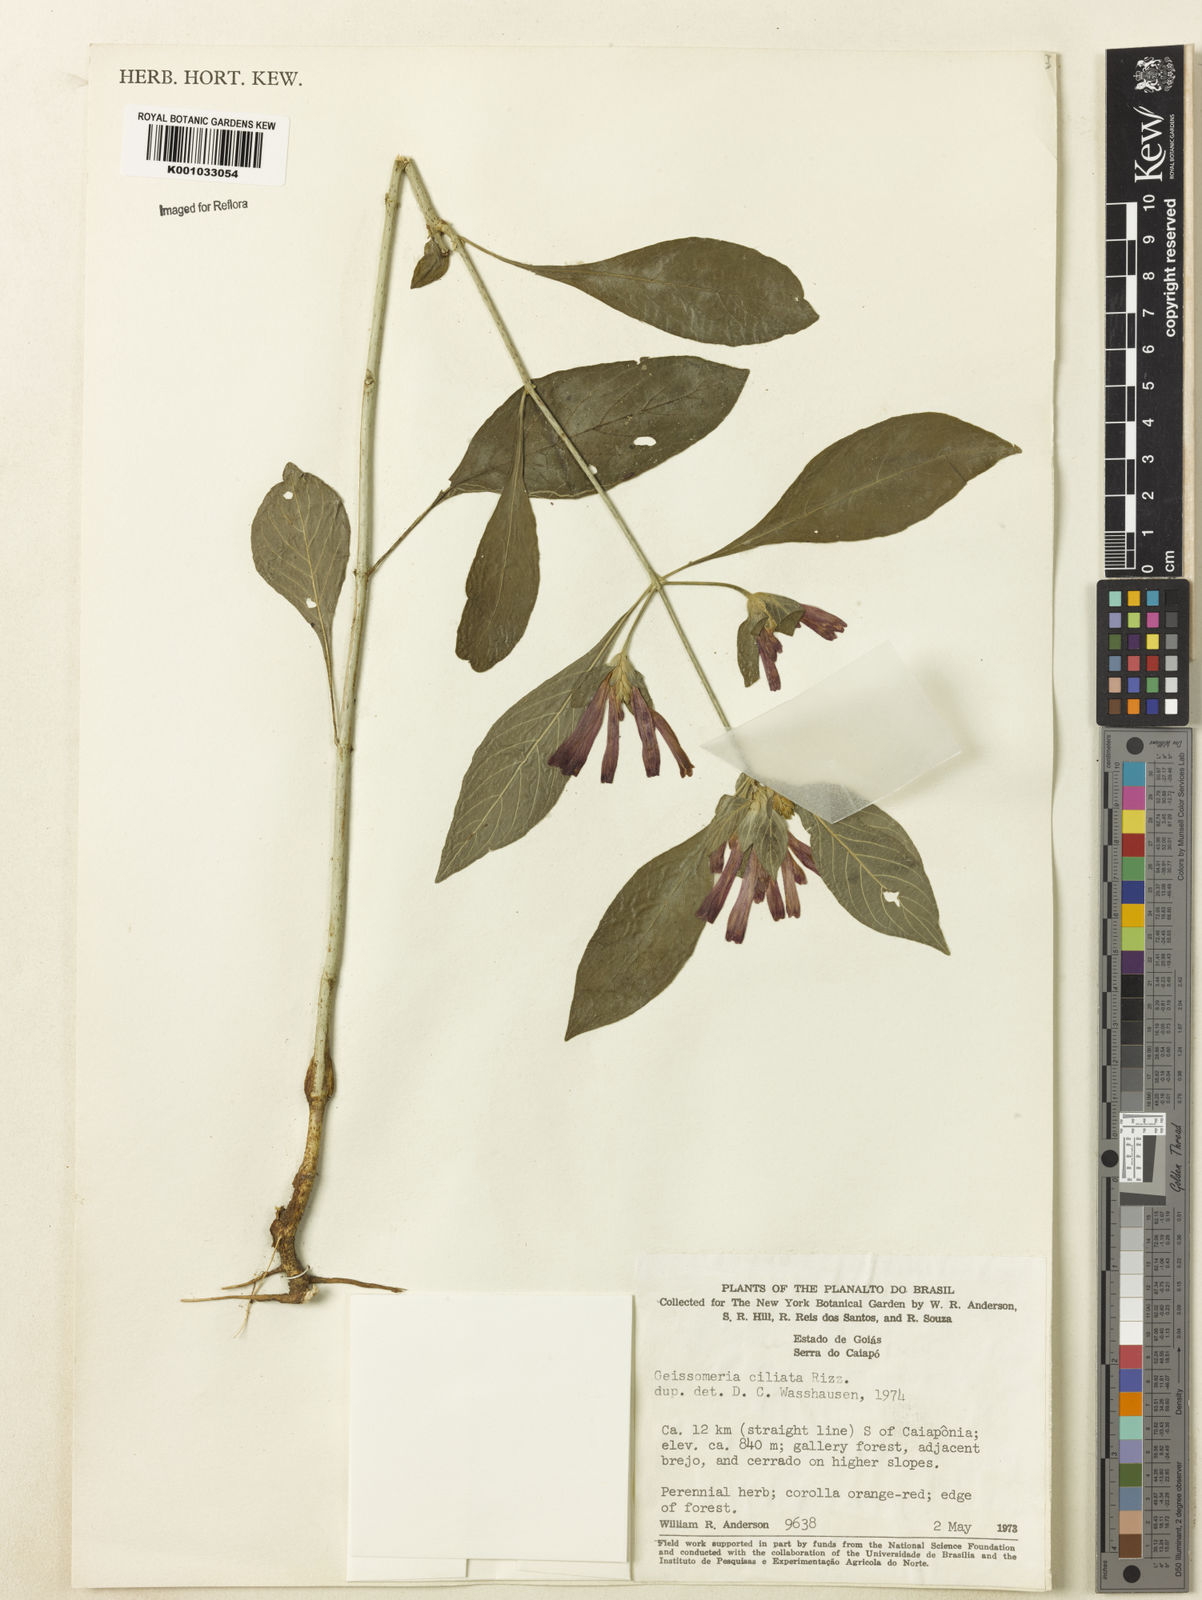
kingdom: Plantae
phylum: Tracheophyta
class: Magnoliopsida
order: Lamiales
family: Acanthaceae
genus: Aphelandra
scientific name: Aphelandra longiflora
